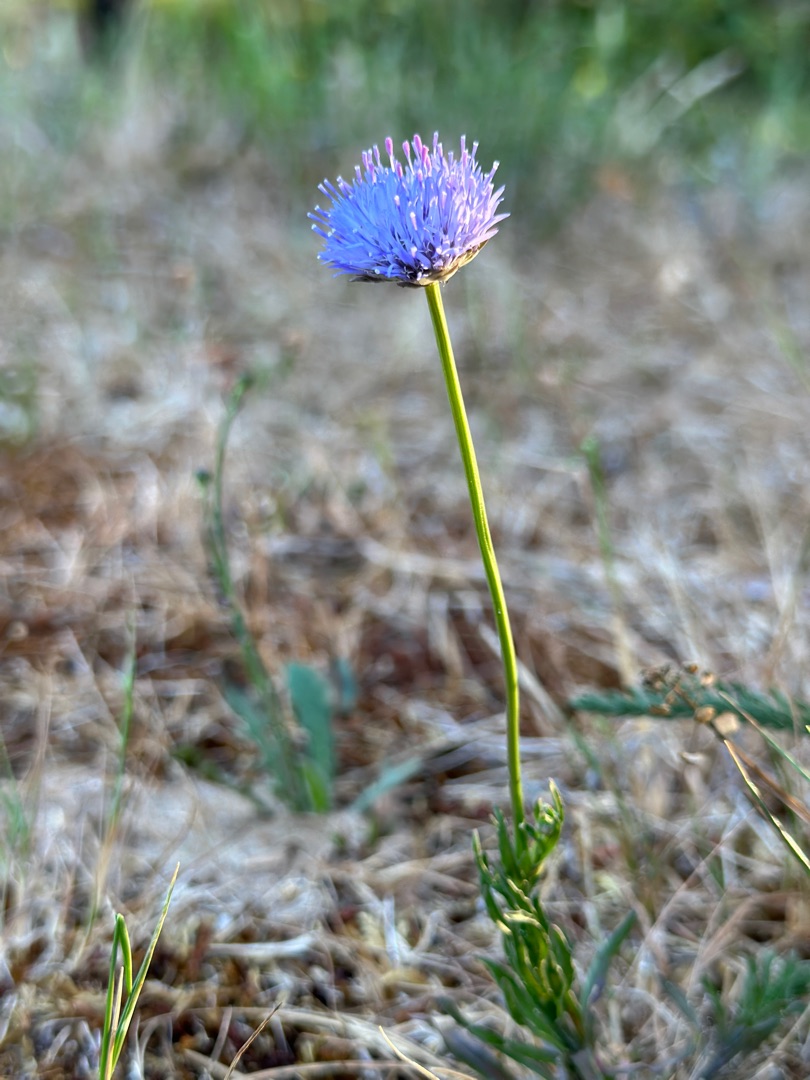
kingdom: Plantae
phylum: Tracheophyta
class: Magnoliopsida
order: Asterales
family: Campanulaceae
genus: Jasione
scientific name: Jasione montana
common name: Blåmunke
